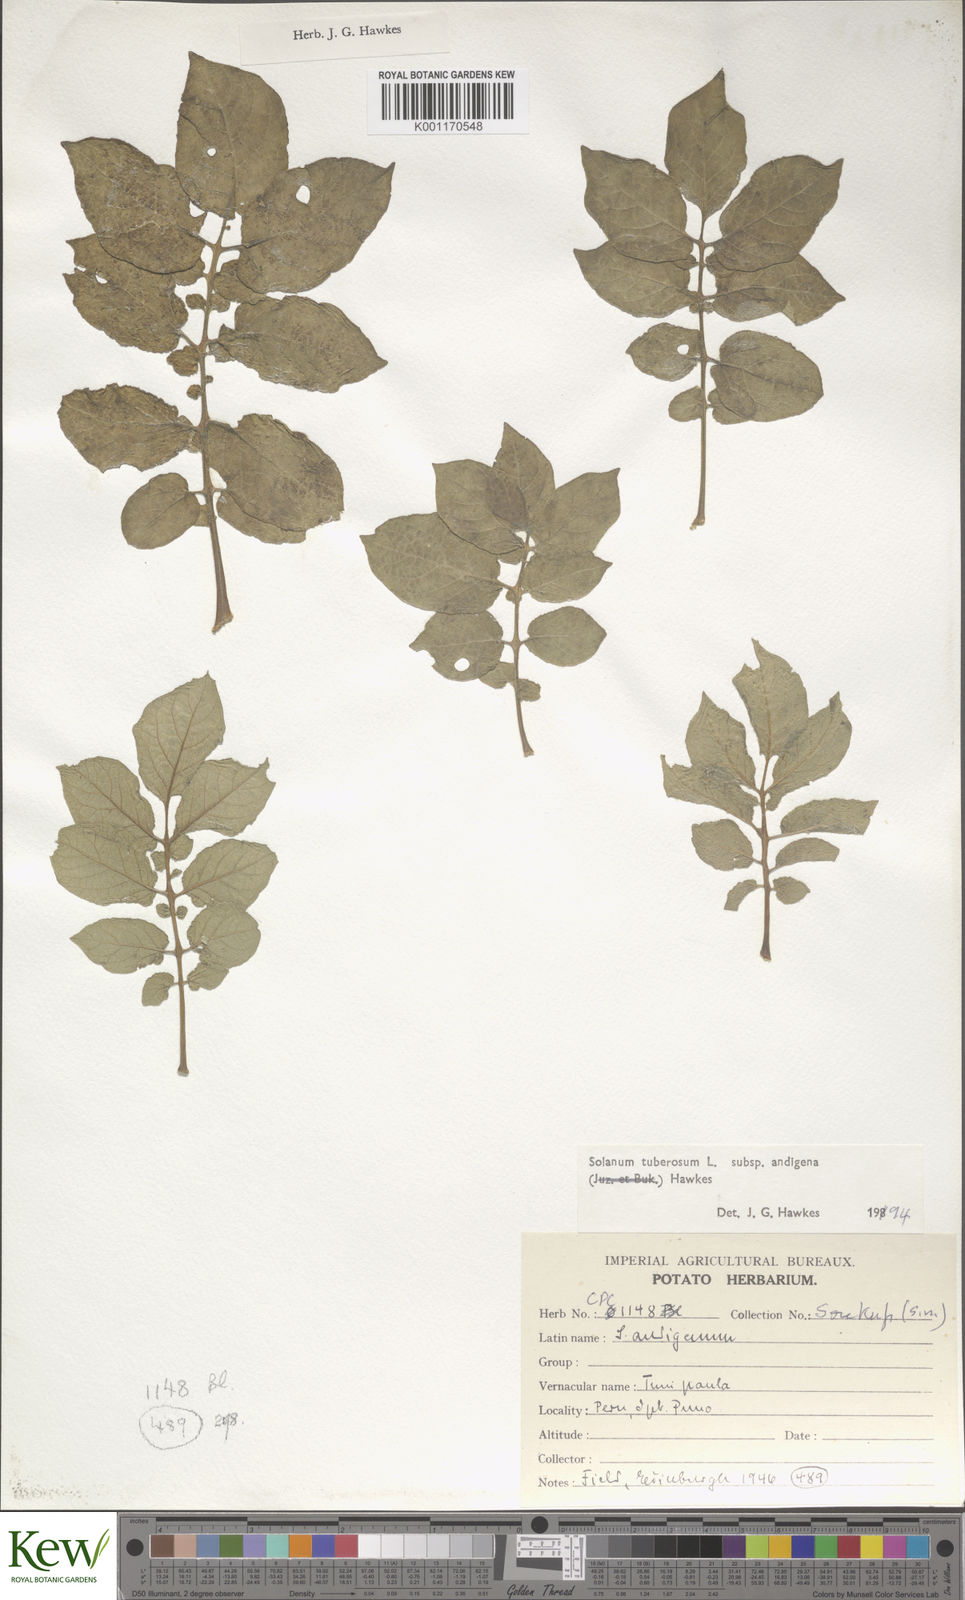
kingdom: Plantae
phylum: Tracheophyta
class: Magnoliopsida
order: Solanales
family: Solanaceae
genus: Solanum
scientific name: Solanum tuberosum
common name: Potato
